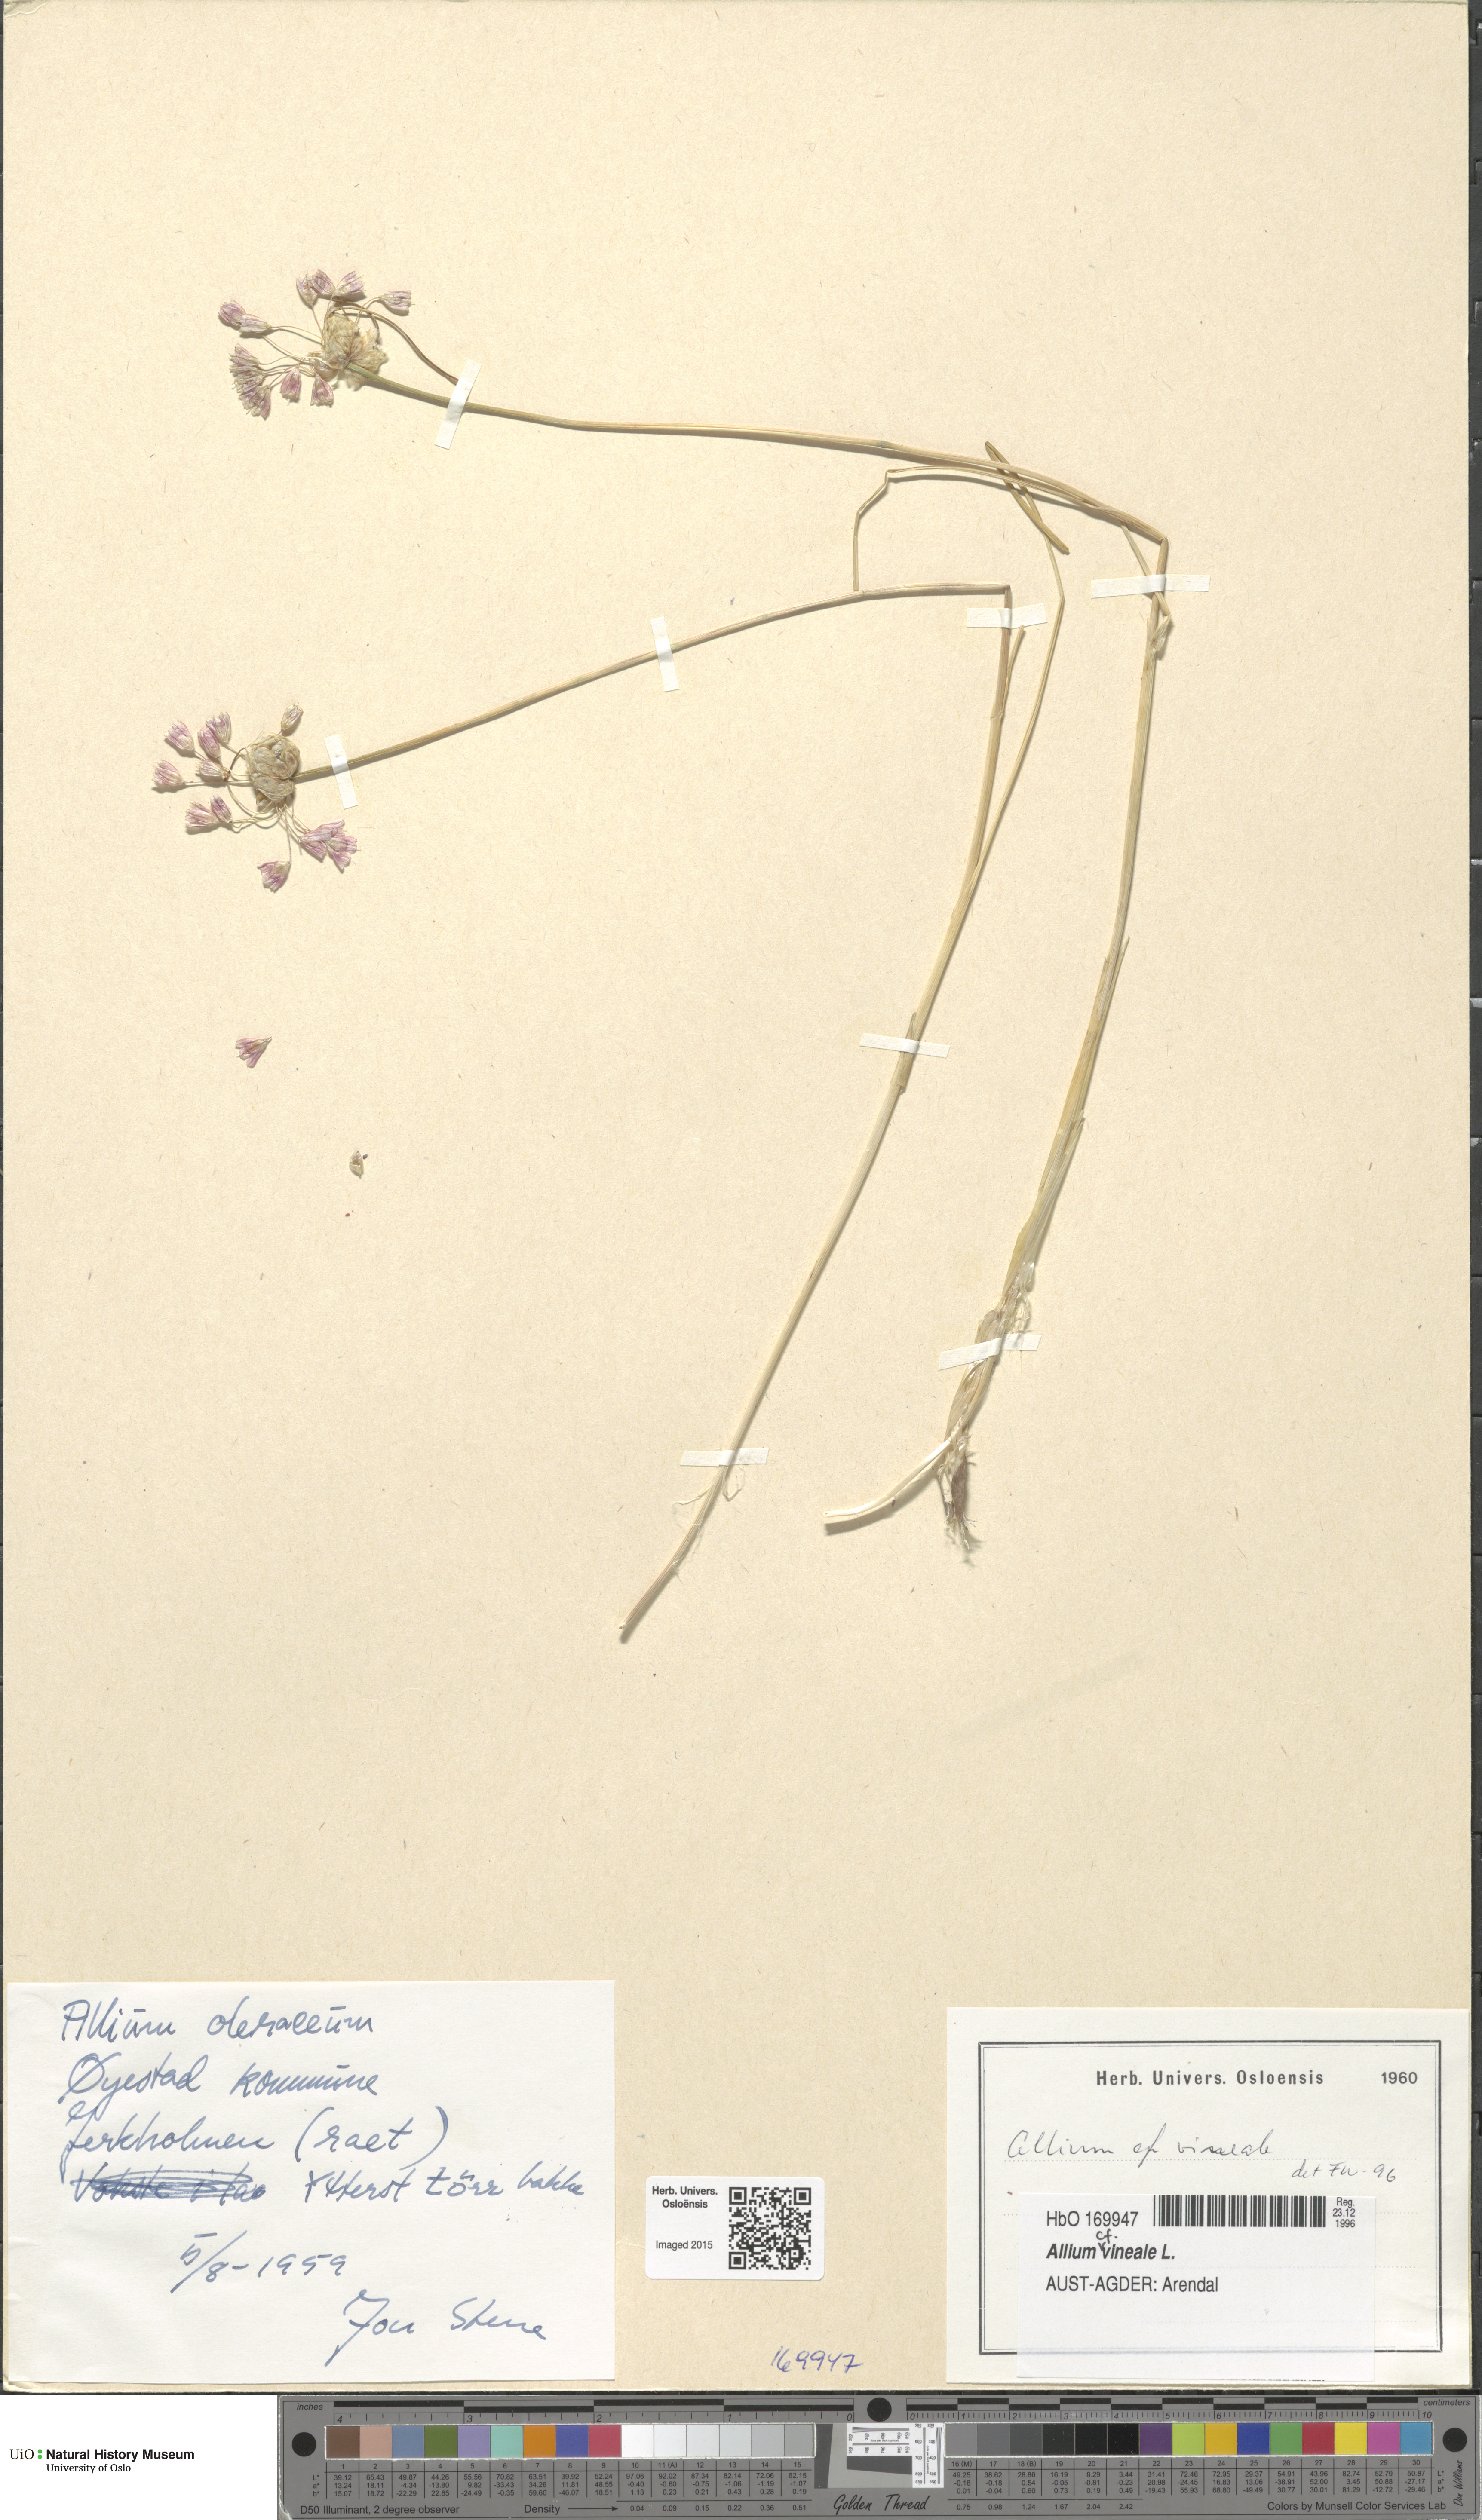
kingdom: Plantae
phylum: Tracheophyta
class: Liliopsida
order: Asparagales
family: Amaryllidaceae
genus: Allium
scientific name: Allium vineale
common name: Crow garlic
